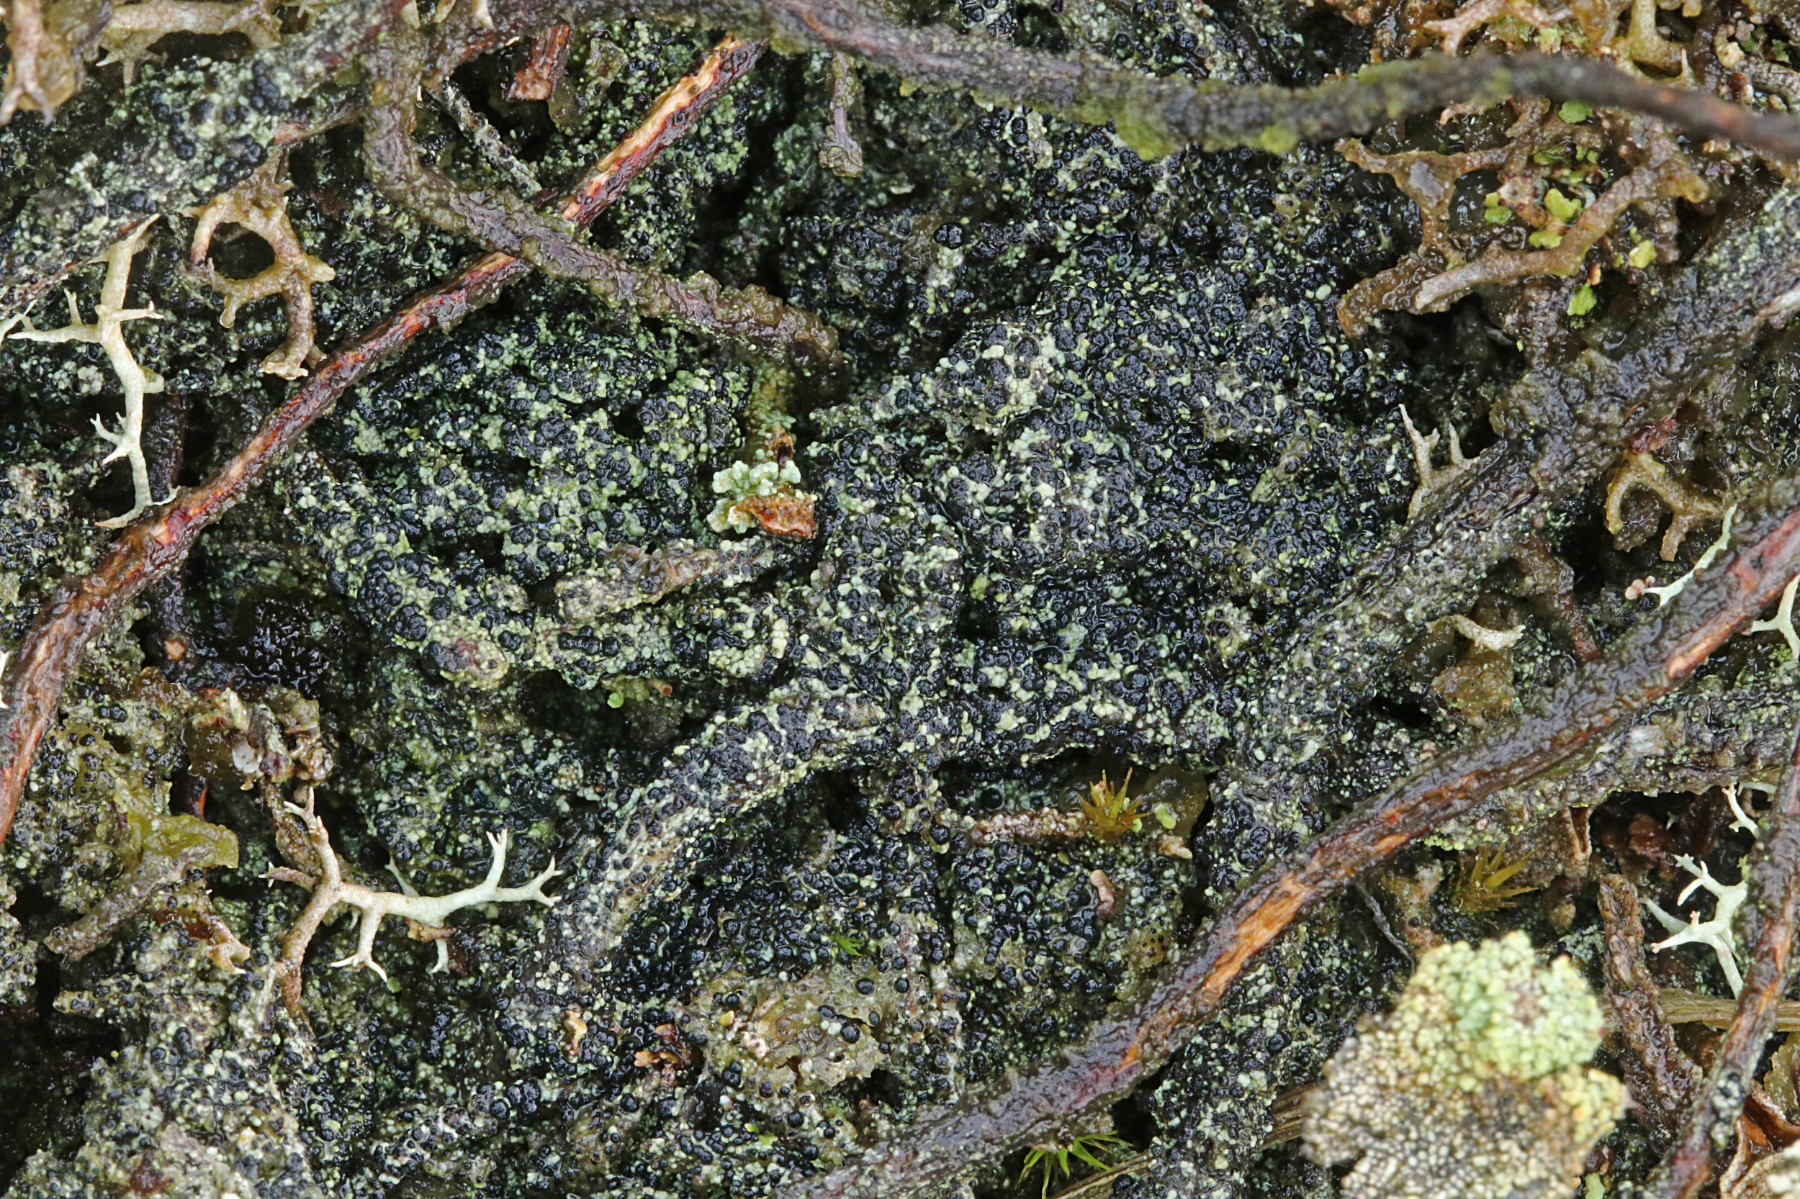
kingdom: Fungi
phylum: Ascomycota
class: Lecanoromycetes
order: Lecanorales
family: Byssolomataceae
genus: Micarea
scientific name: Micarea lignaria
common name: tørve-knaplav
